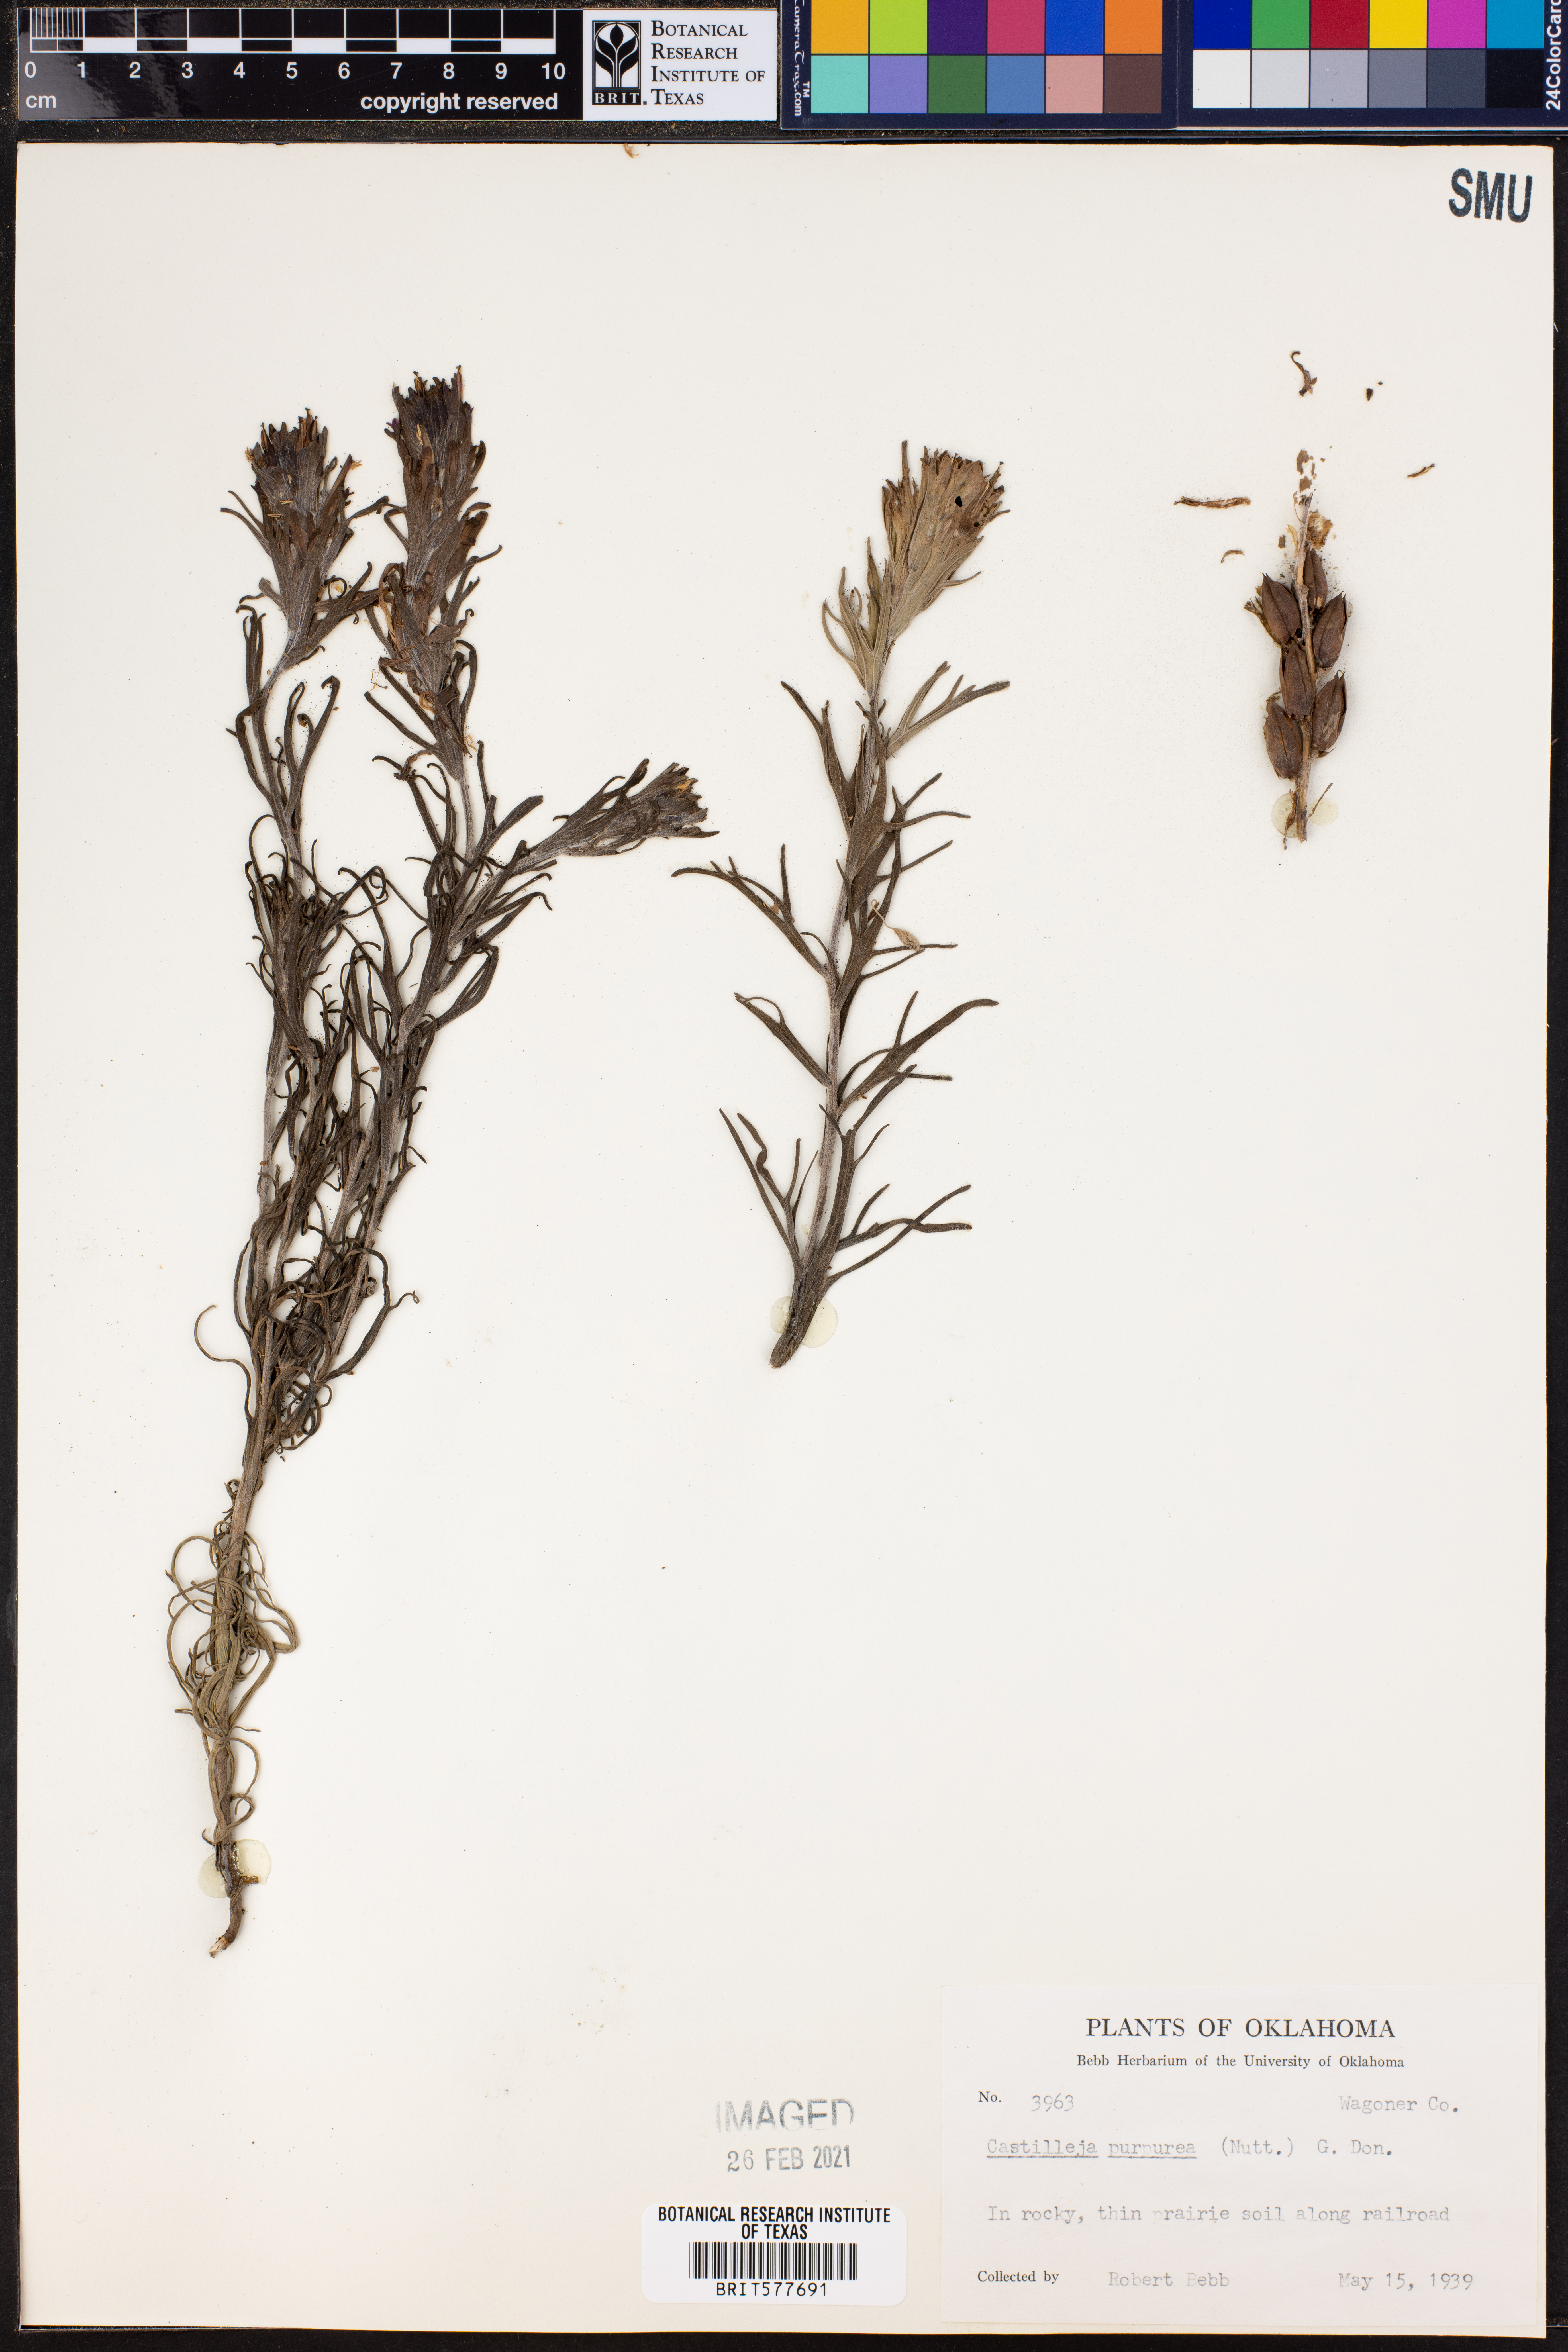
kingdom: Plantae
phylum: Tracheophyta
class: Magnoliopsida
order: Lamiales
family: Orobanchaceae
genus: Castilleja
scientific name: Castilleja purpurea
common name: Plains paintbrush
